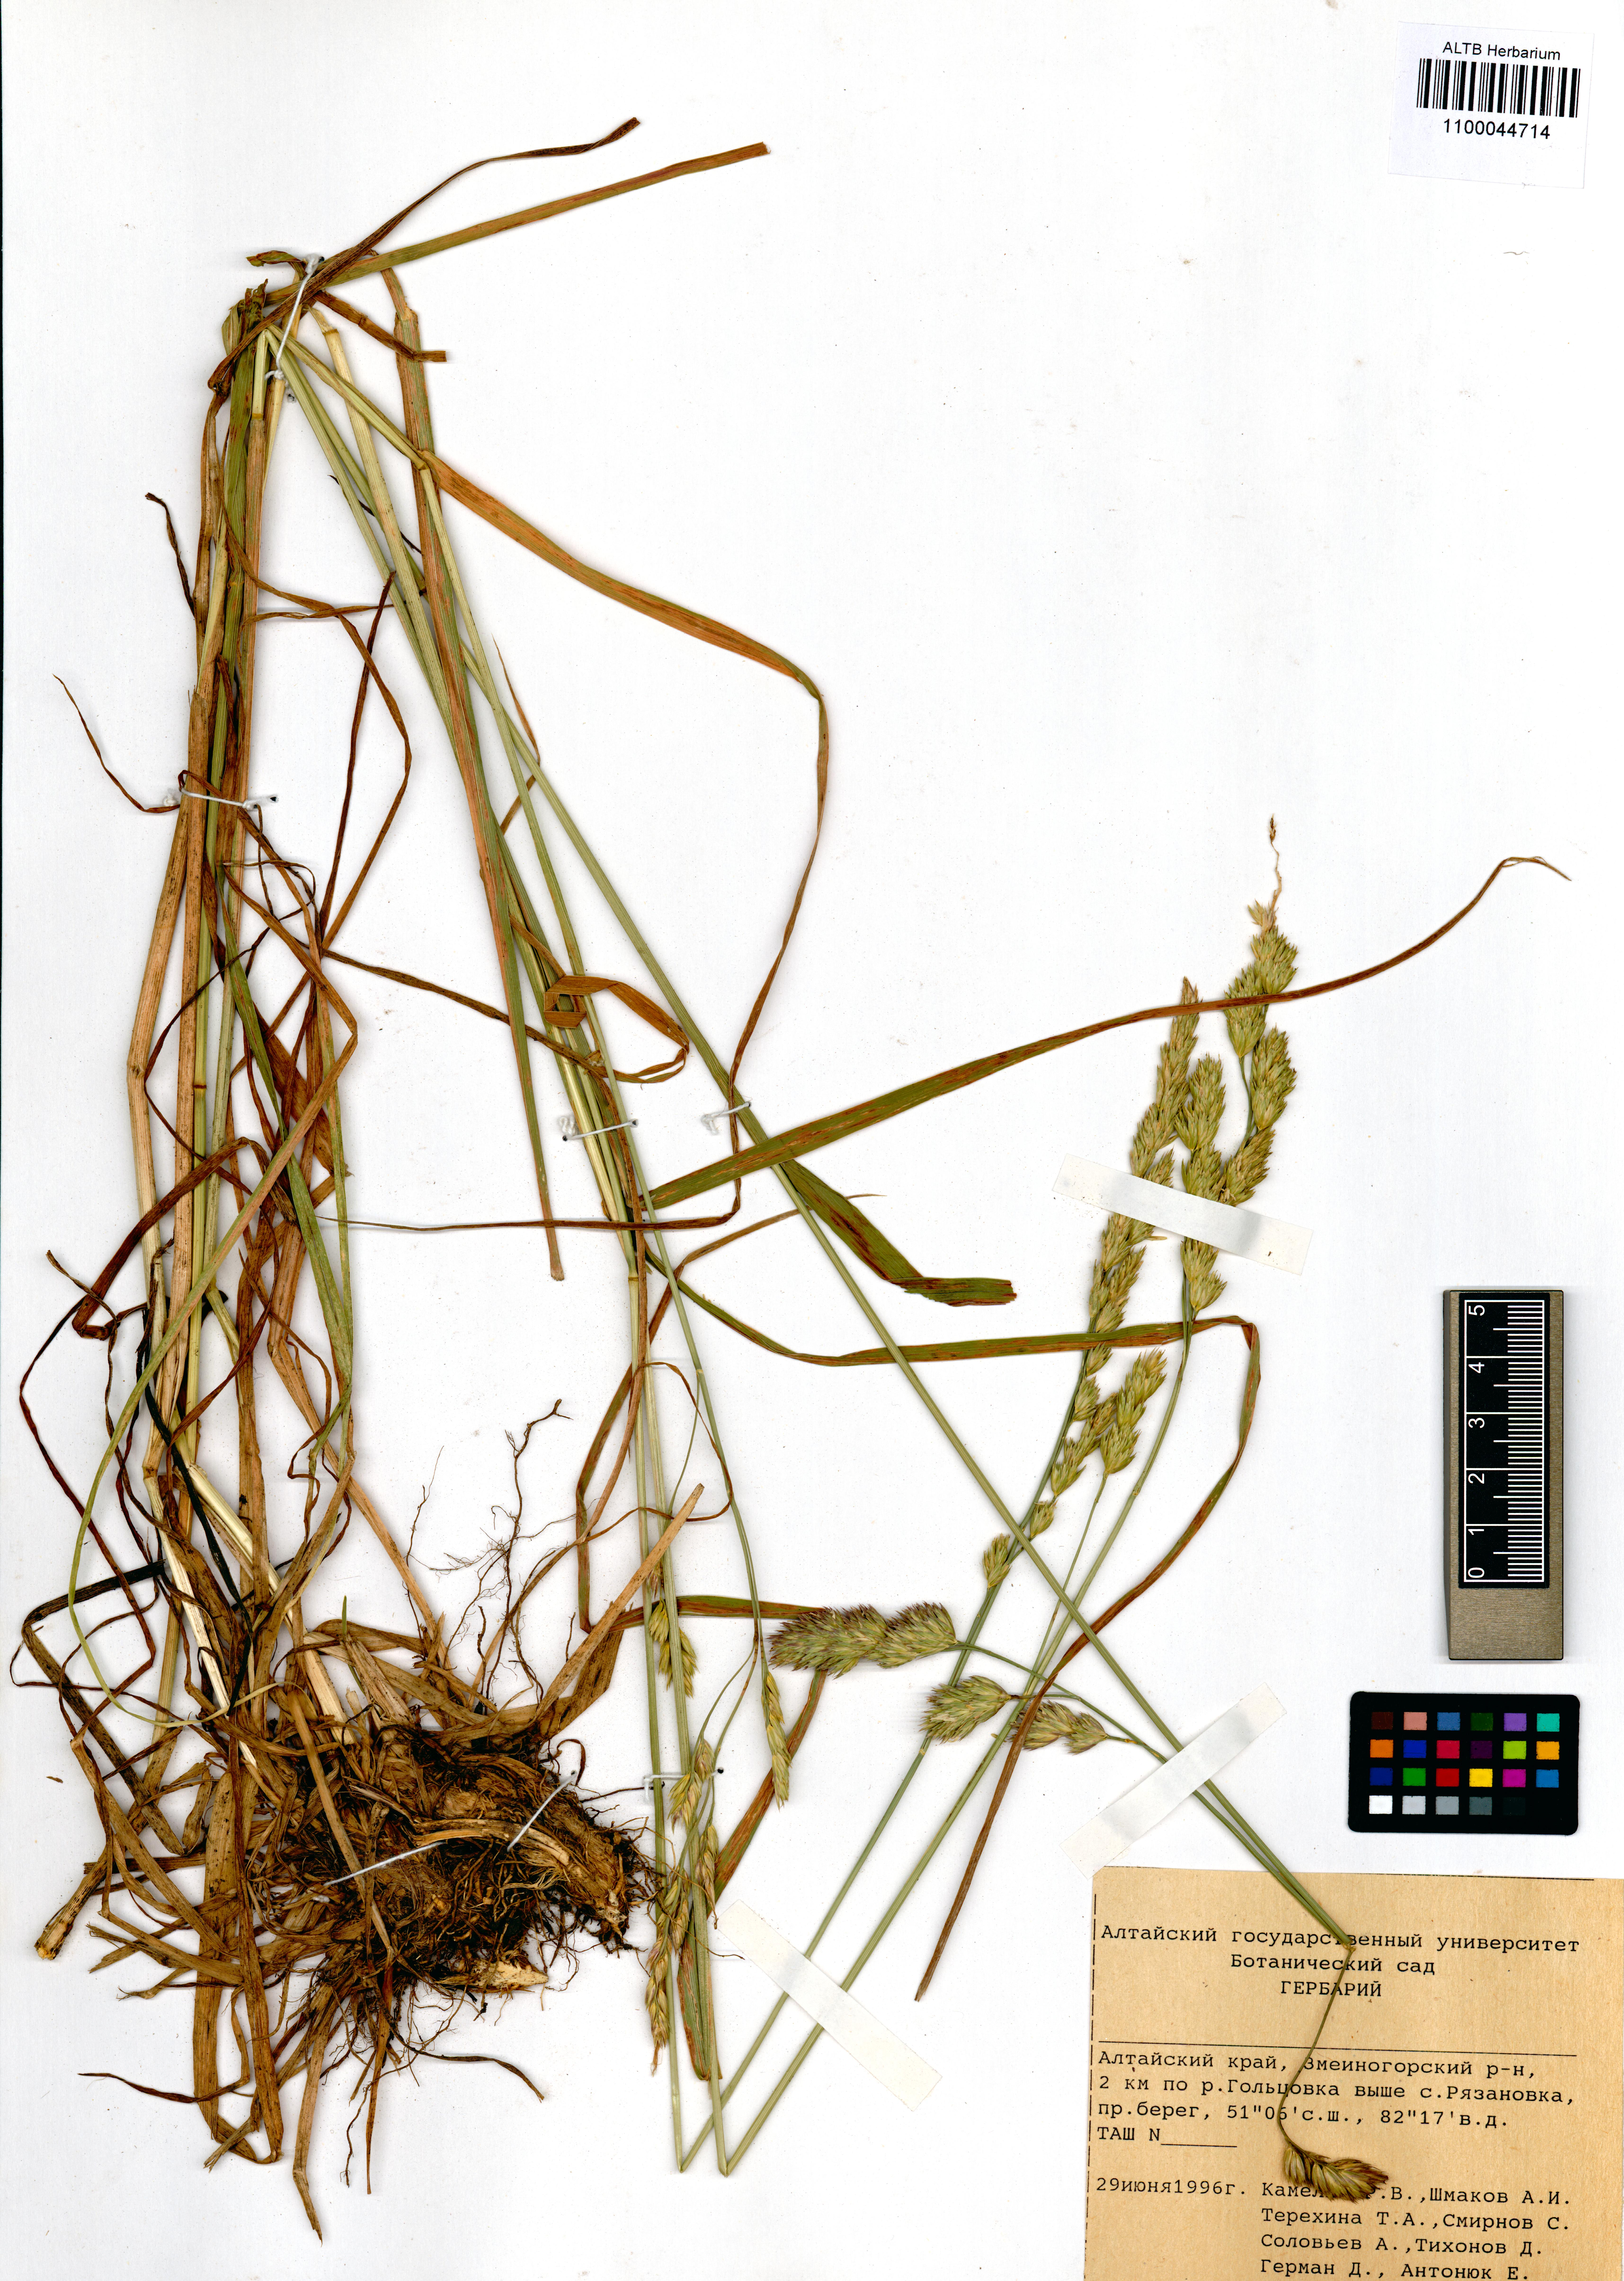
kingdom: Plantae
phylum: Tracheophyta
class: Liliopsida
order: Poales
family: Poaceae
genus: Dactylis
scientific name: Dactylis glomerata
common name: Orchardgrass
